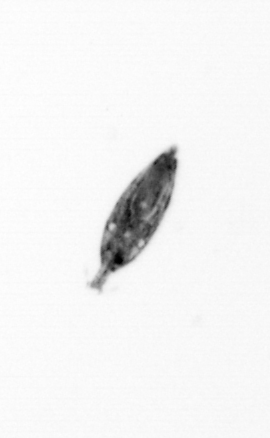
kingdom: Animalia
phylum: Arthropoda
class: Maxillopoda
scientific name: Maxillopoda
